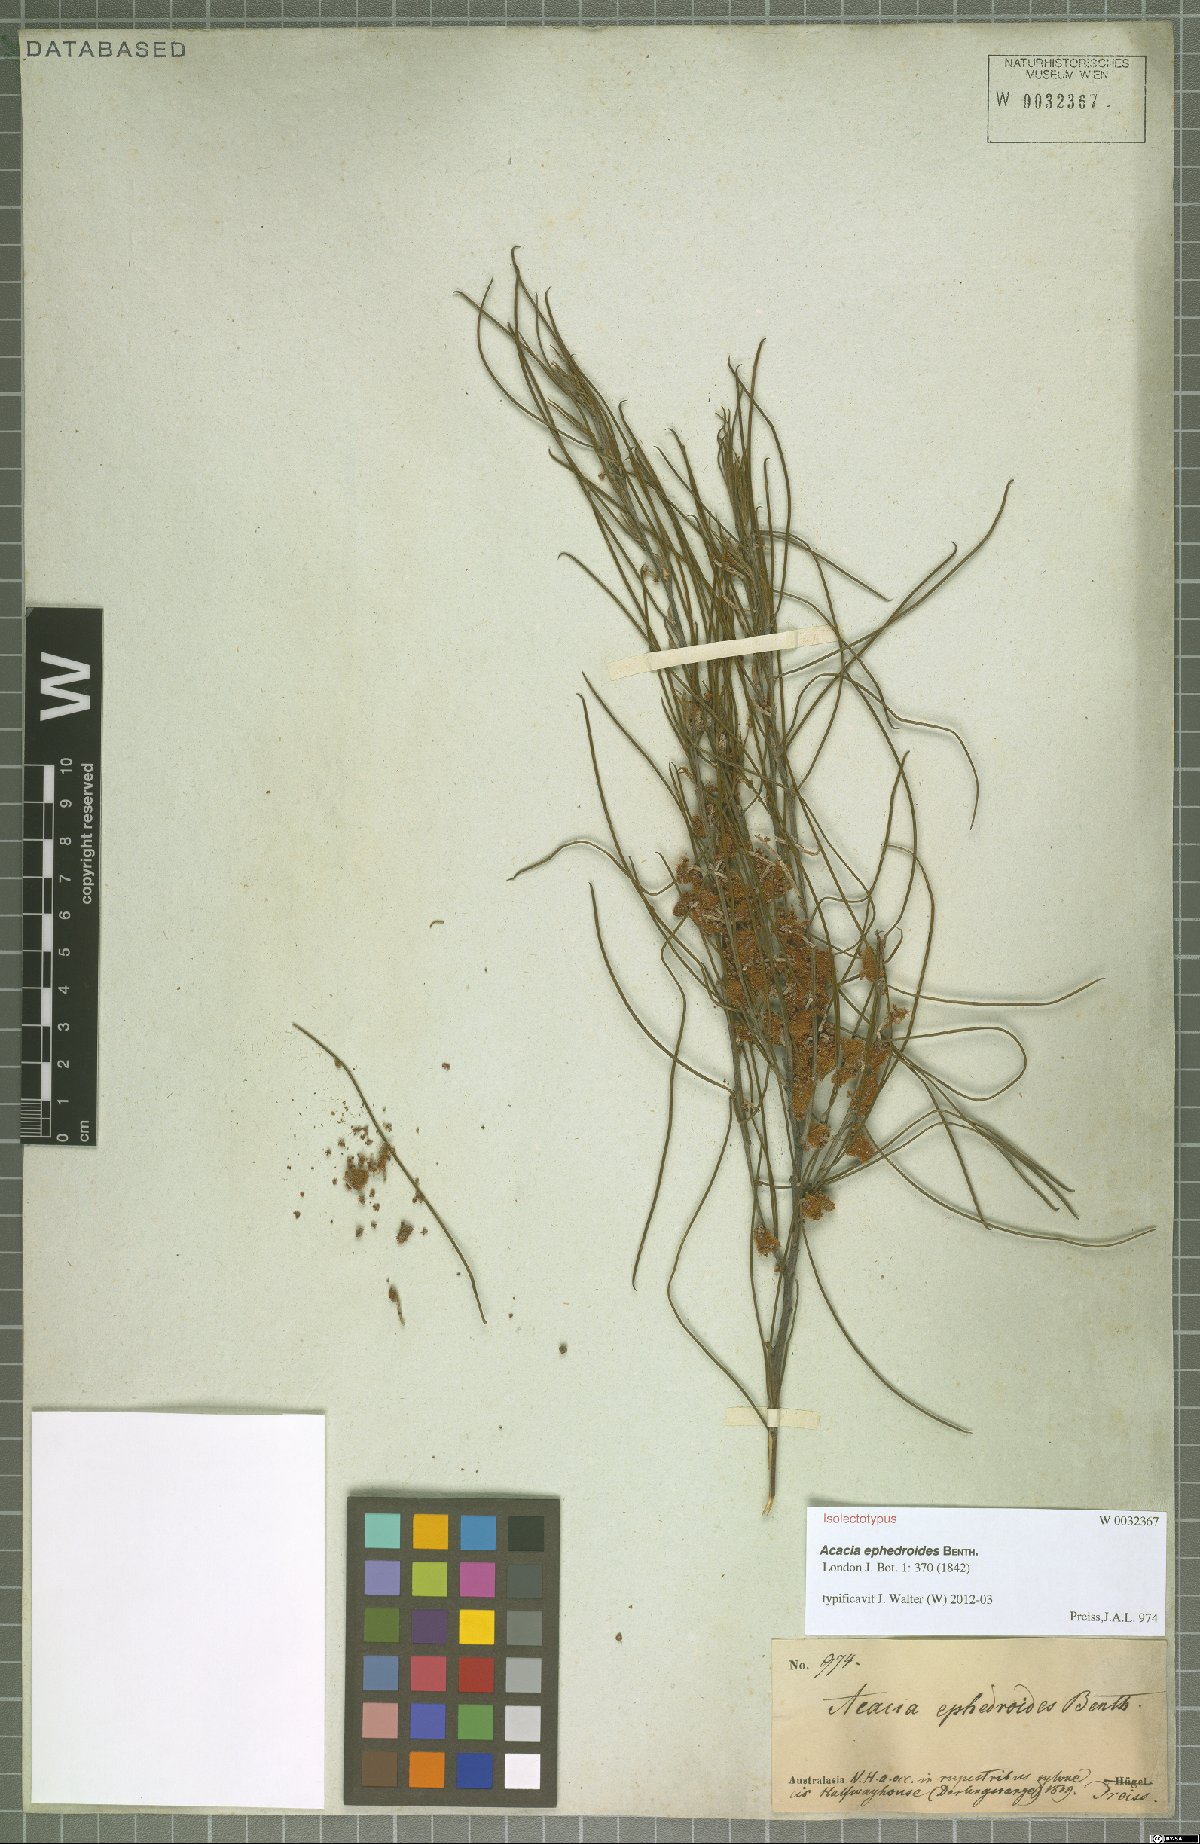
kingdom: Plantae
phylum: Tracheophyta
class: Magnoliopsida
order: Fabales
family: Fabaceae
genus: Acacia
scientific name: Acacia ephedroides
